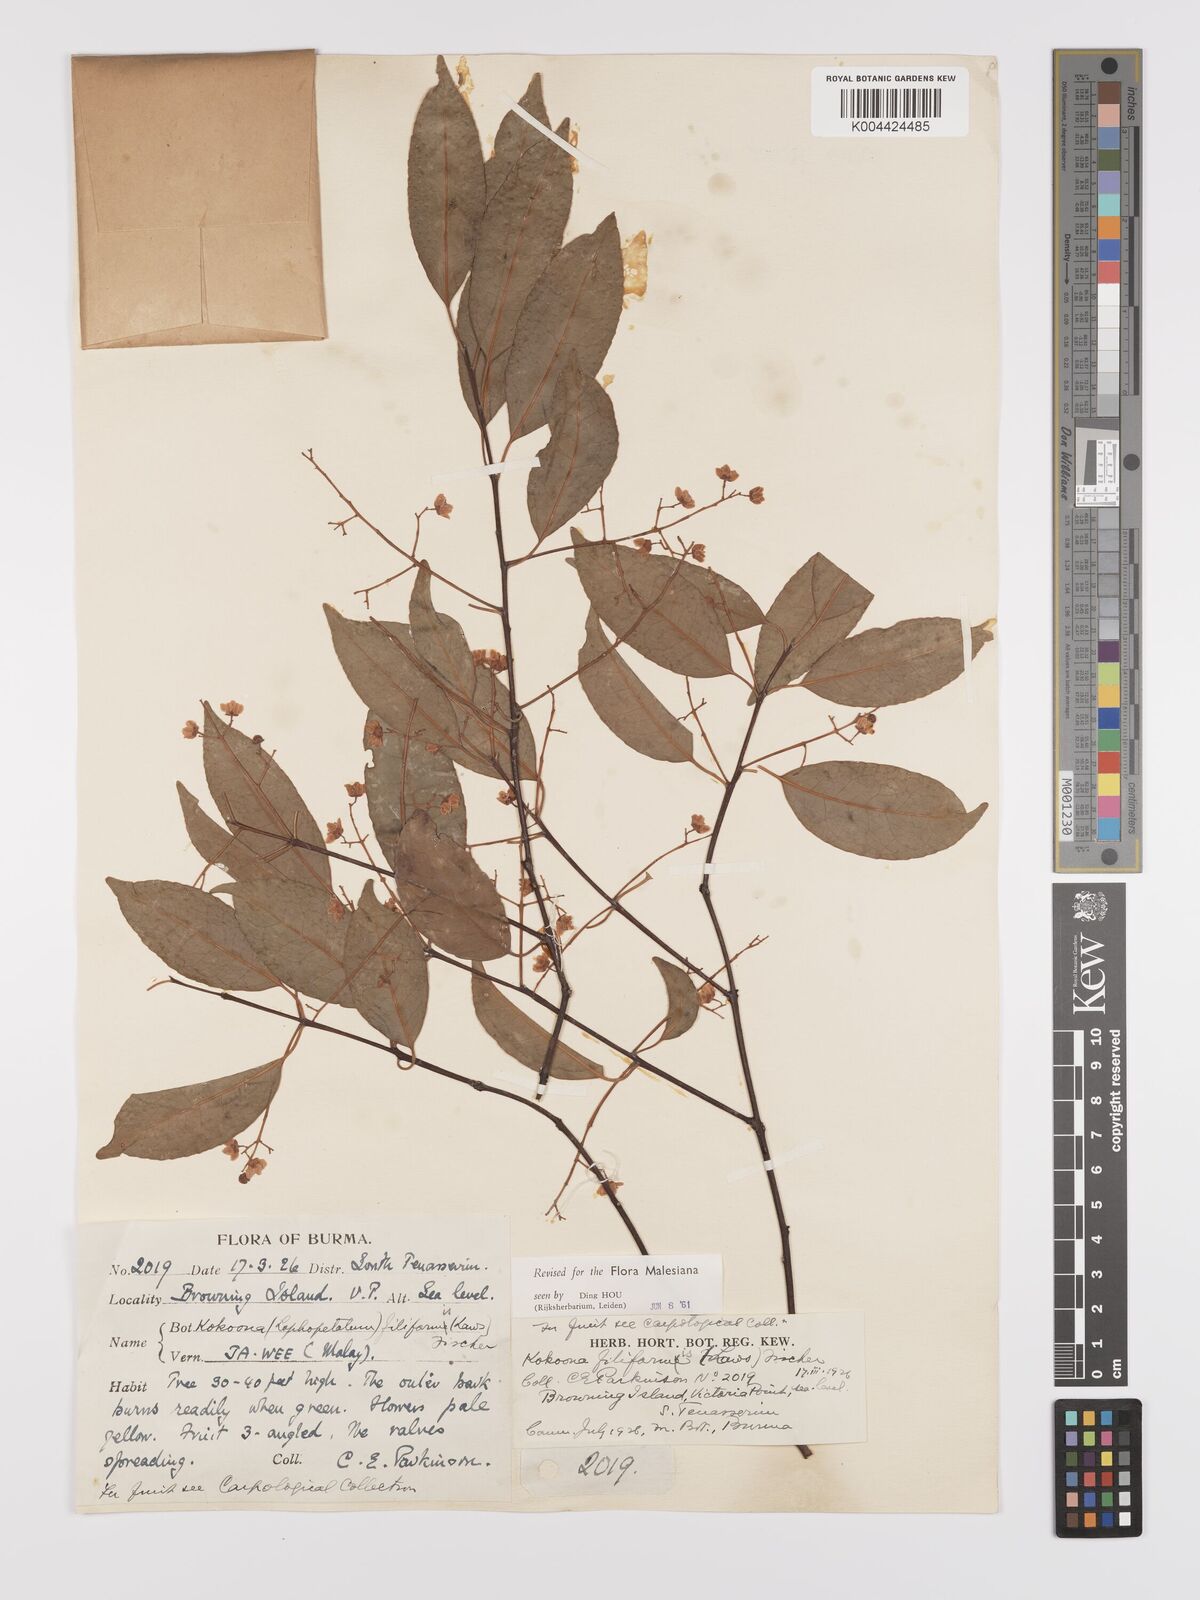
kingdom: Plantae
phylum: Tracheophyta
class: Magnoliopsida
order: Celastrales
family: Celastraceae
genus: Kokoona
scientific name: Kokoona filiformis
